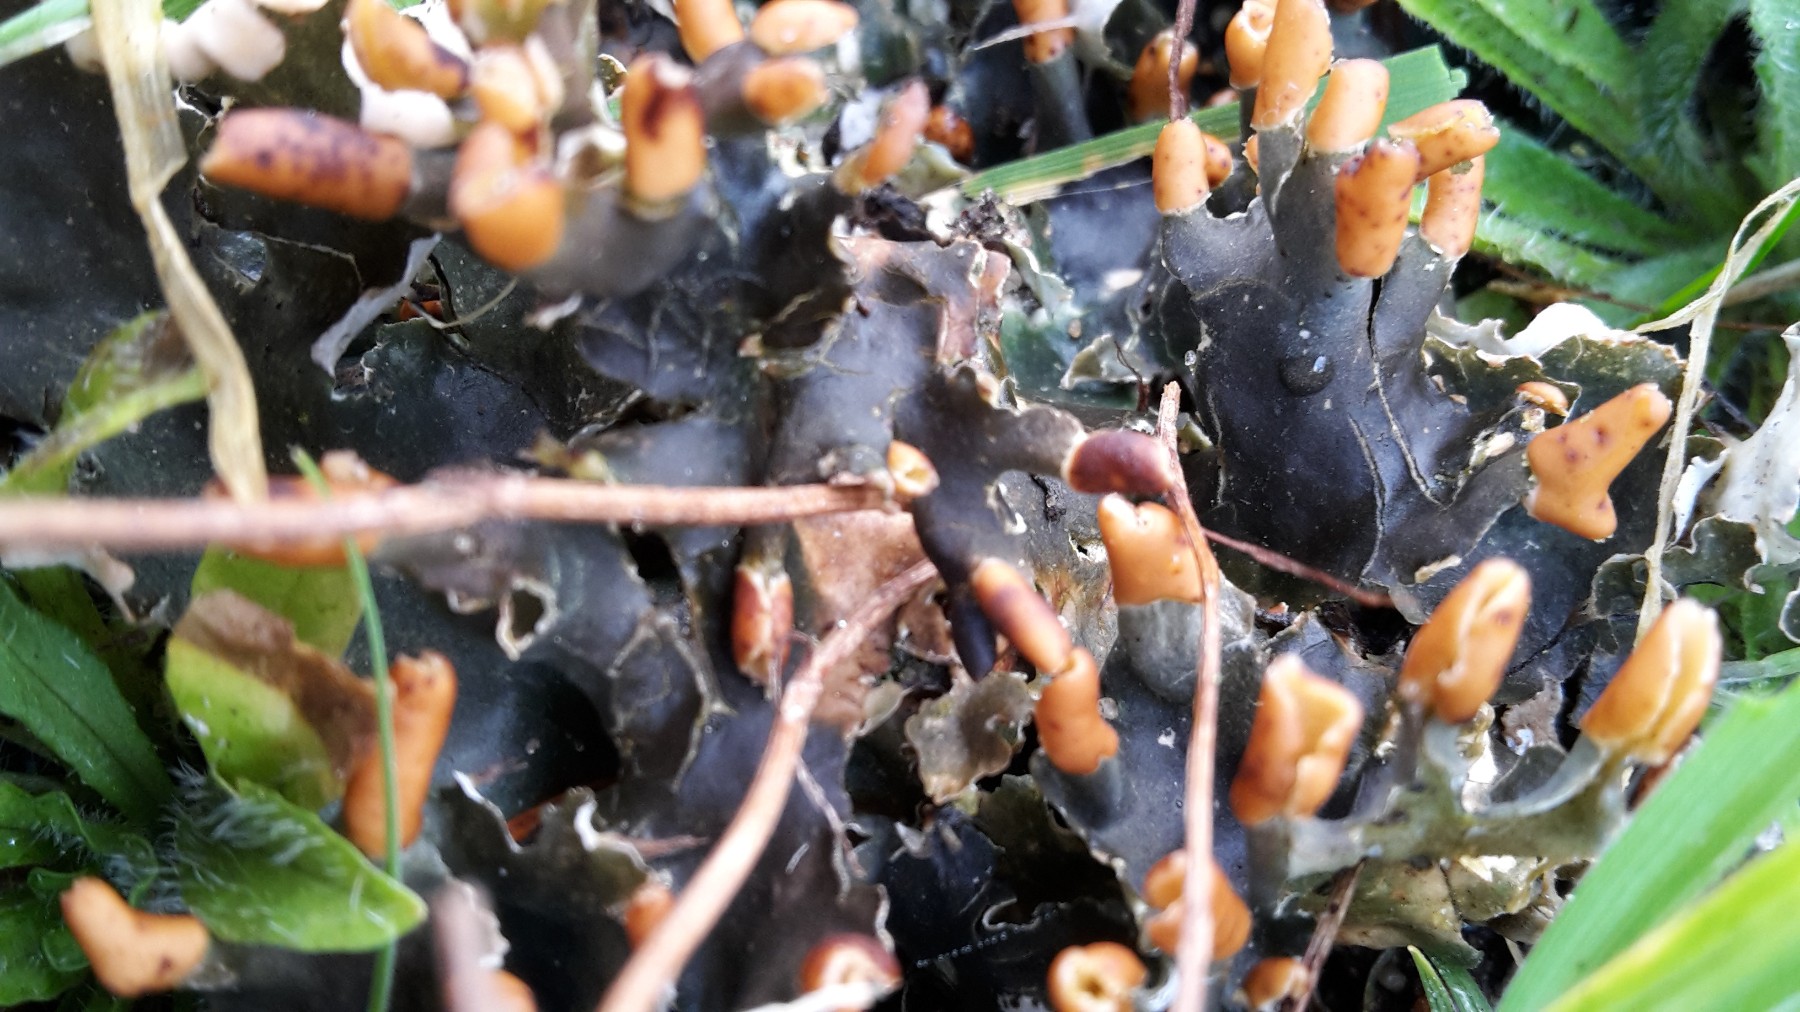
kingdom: Fungi
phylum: Ascomycota
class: Lecanoromycetes
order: Peltigerales
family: Peltigeraceae
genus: Peltigera
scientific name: Peltigera hymenina
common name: hinde-skjoldlav
